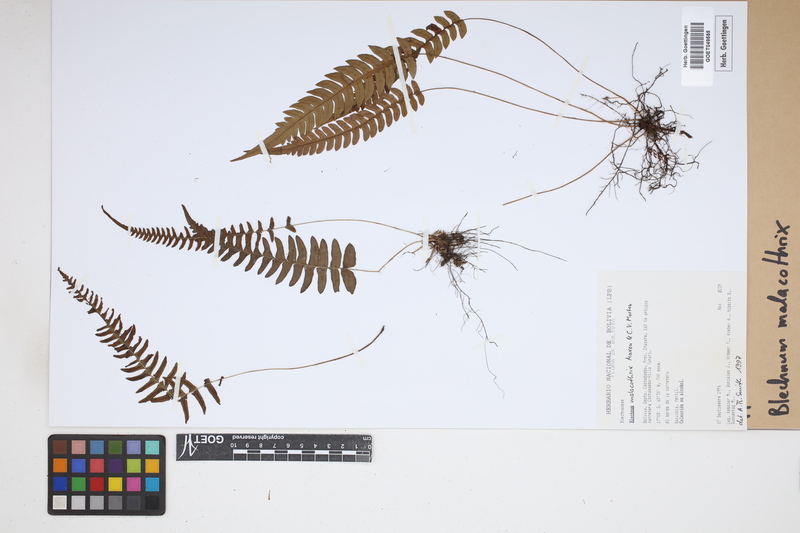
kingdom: Plantae
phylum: Tracheophyta
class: Polypodiopsida
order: Polypodiales
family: Blechnaceae
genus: Blechnum
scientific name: Blechnum malacothrix
